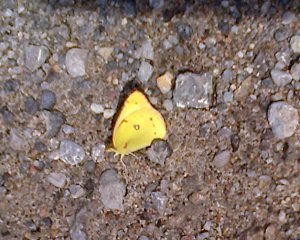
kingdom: Animalia
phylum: Arthropoda
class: Insecta
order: Lepidoptera
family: Pieridae
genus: Colias
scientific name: Colias philodice
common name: Clouded Sulphur
